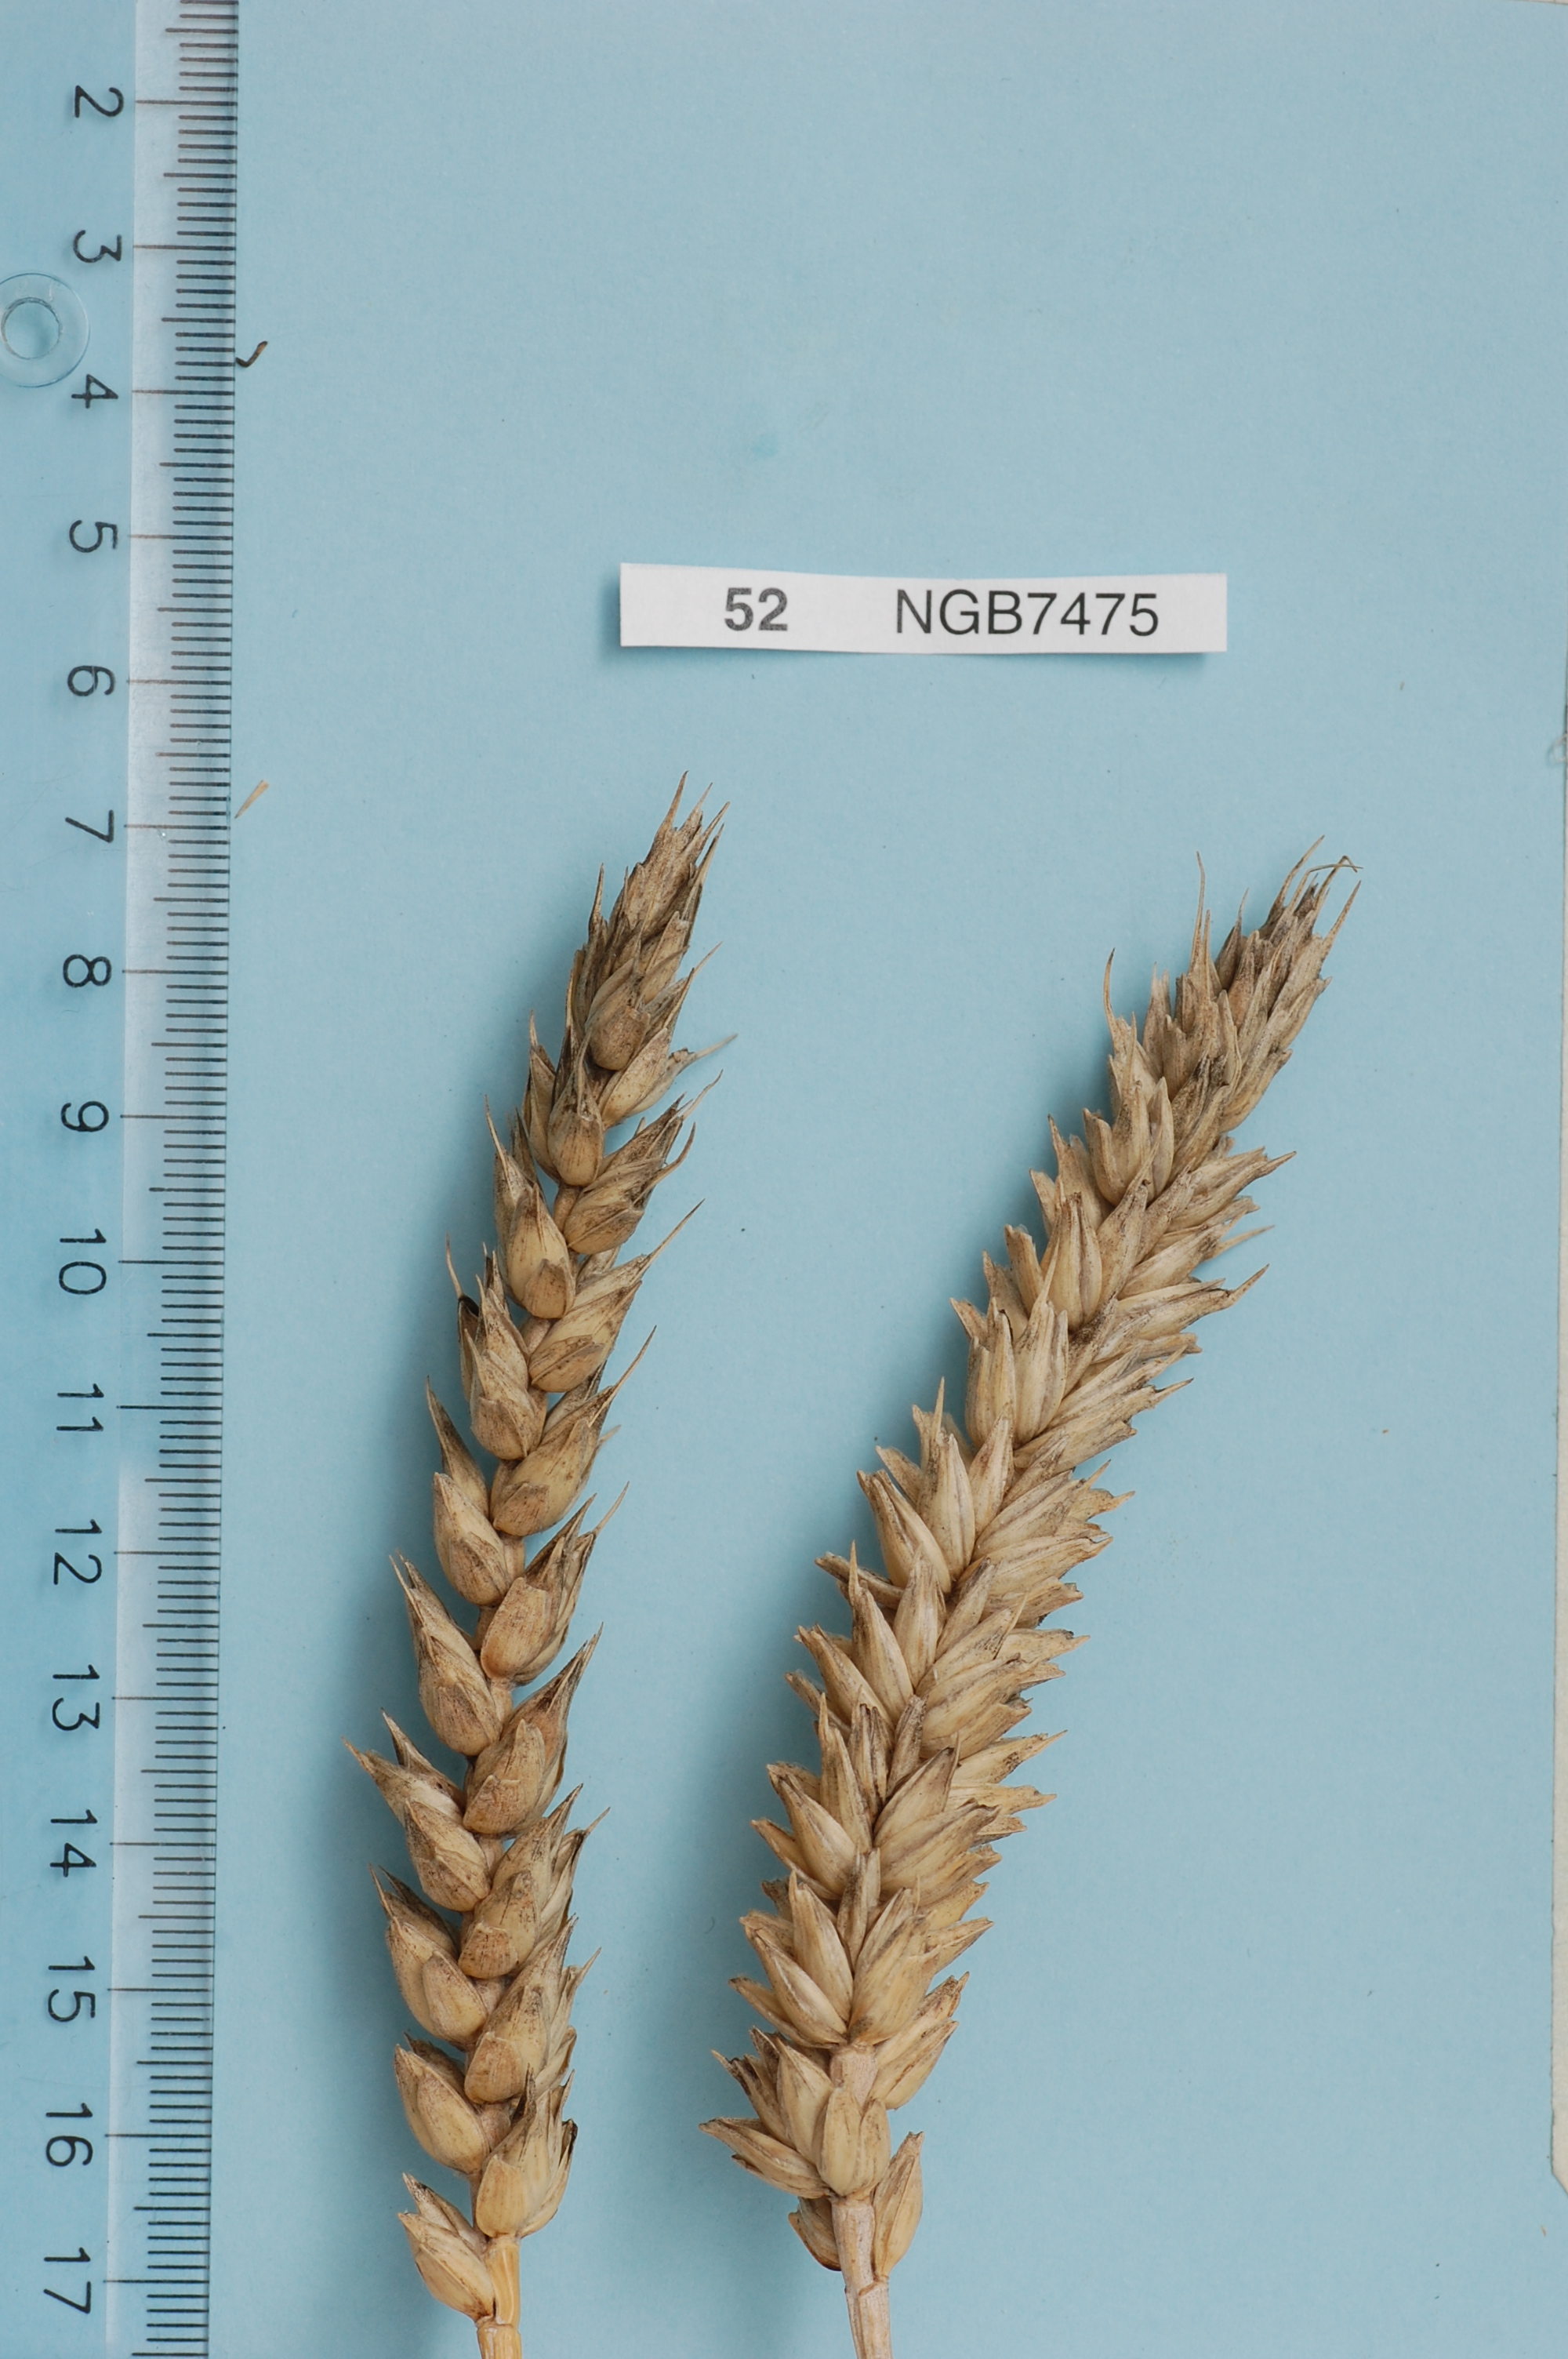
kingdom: Plantae
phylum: Tracheophyta
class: Liliopsida
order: Poales
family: Poaceae
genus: Triticum
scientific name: Triticum aestivum
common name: Common wheat
